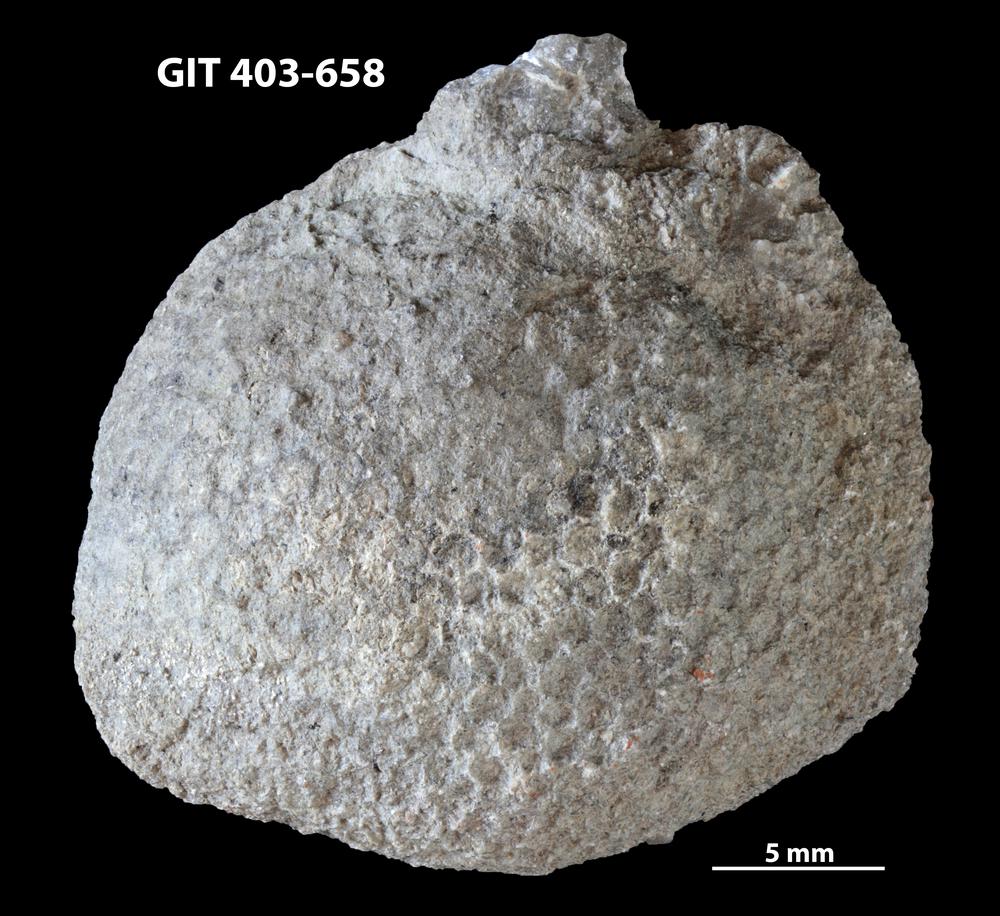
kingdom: Animalia
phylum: Cnidaria
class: Anthozoa
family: Favositidae
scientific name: Favositidae
